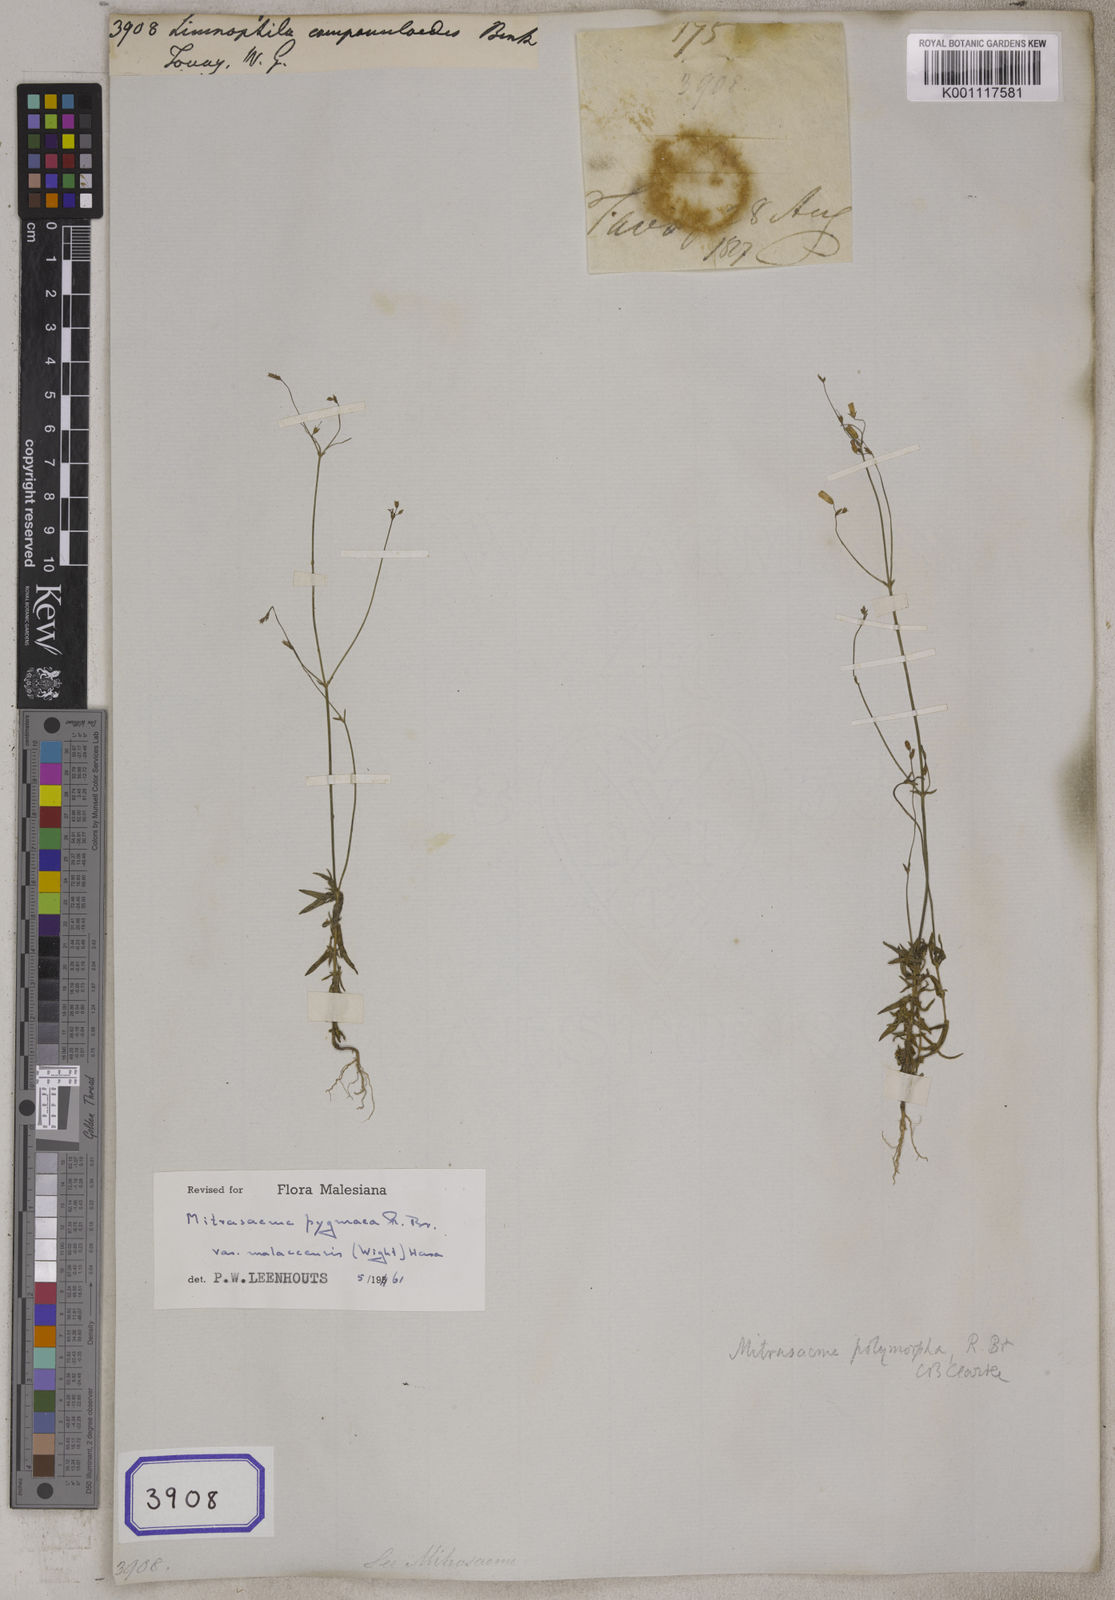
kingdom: Plantae
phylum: Tracheophyta
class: Magnoliopsida
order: Gentianales
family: Loganiaceae
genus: Mitrasacme
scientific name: Mitrasacme polymorpha
